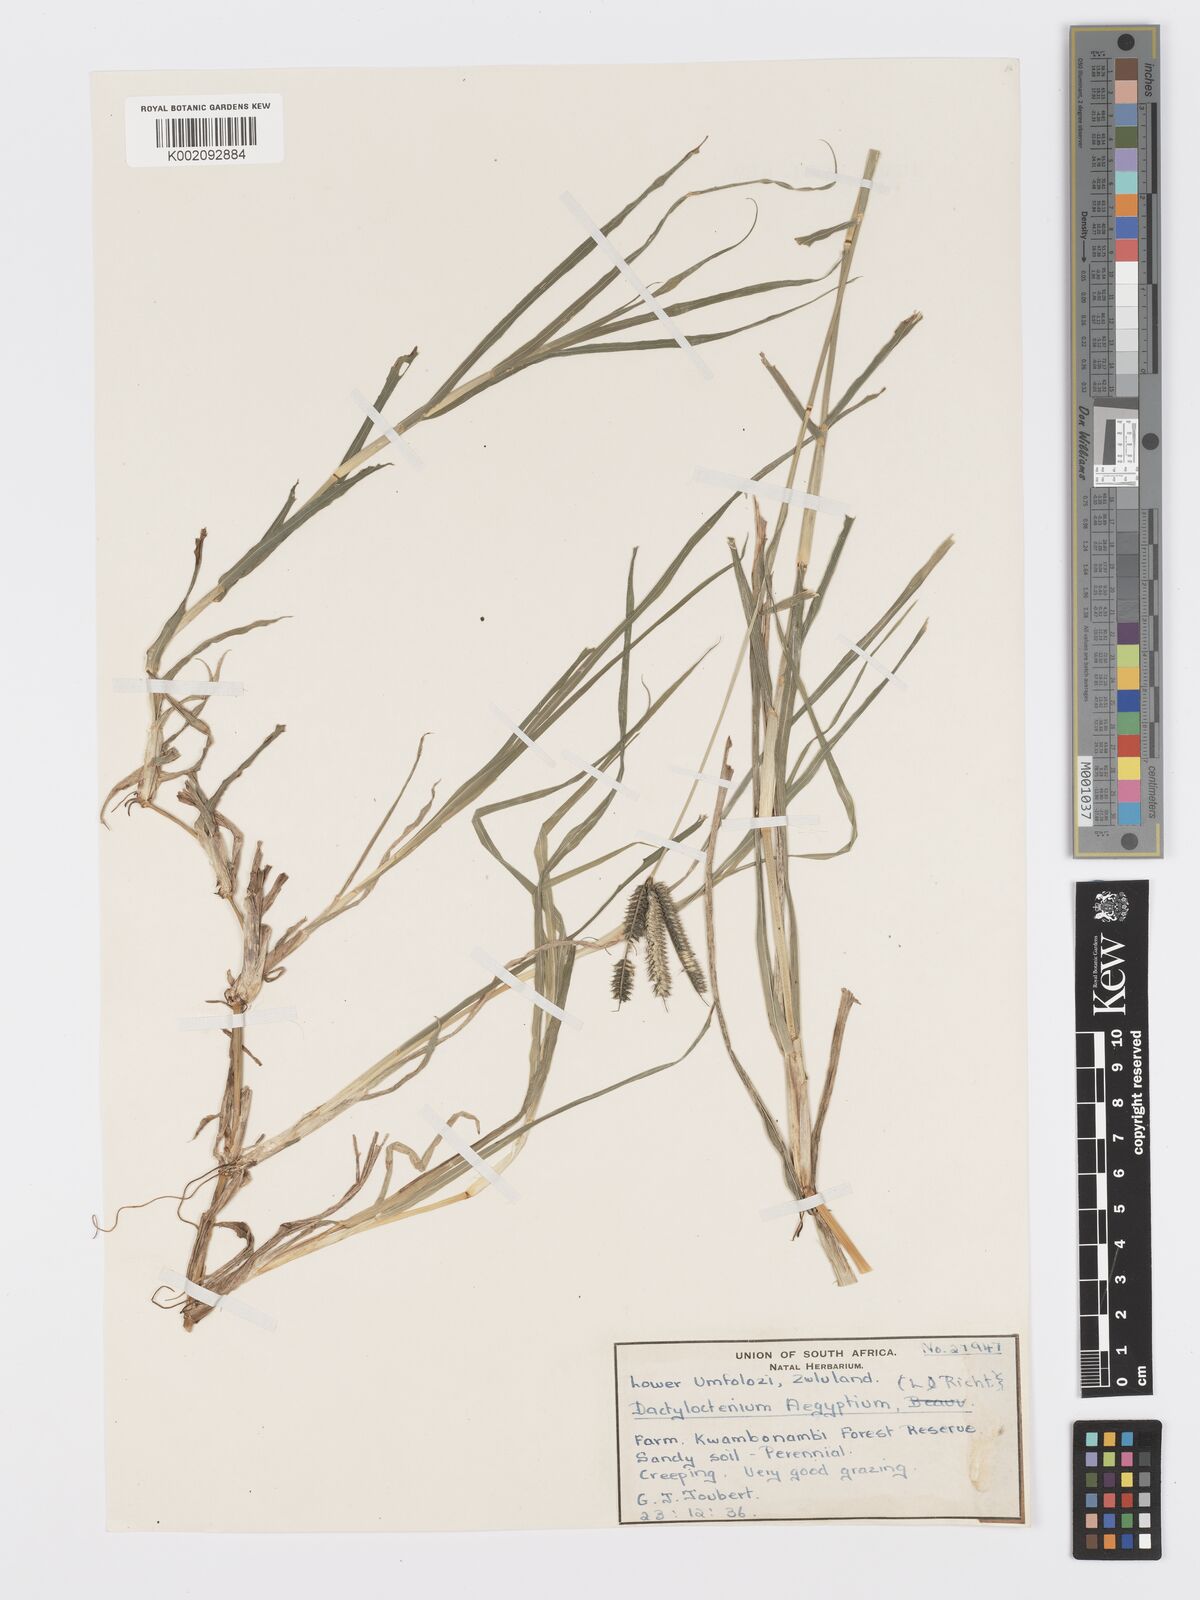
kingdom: Plantae
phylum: Tracheophyta
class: Liliopsida
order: Poales
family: Poaceae
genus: Dactyloctenium
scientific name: Dactyloctenium australe
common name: Durban grass
